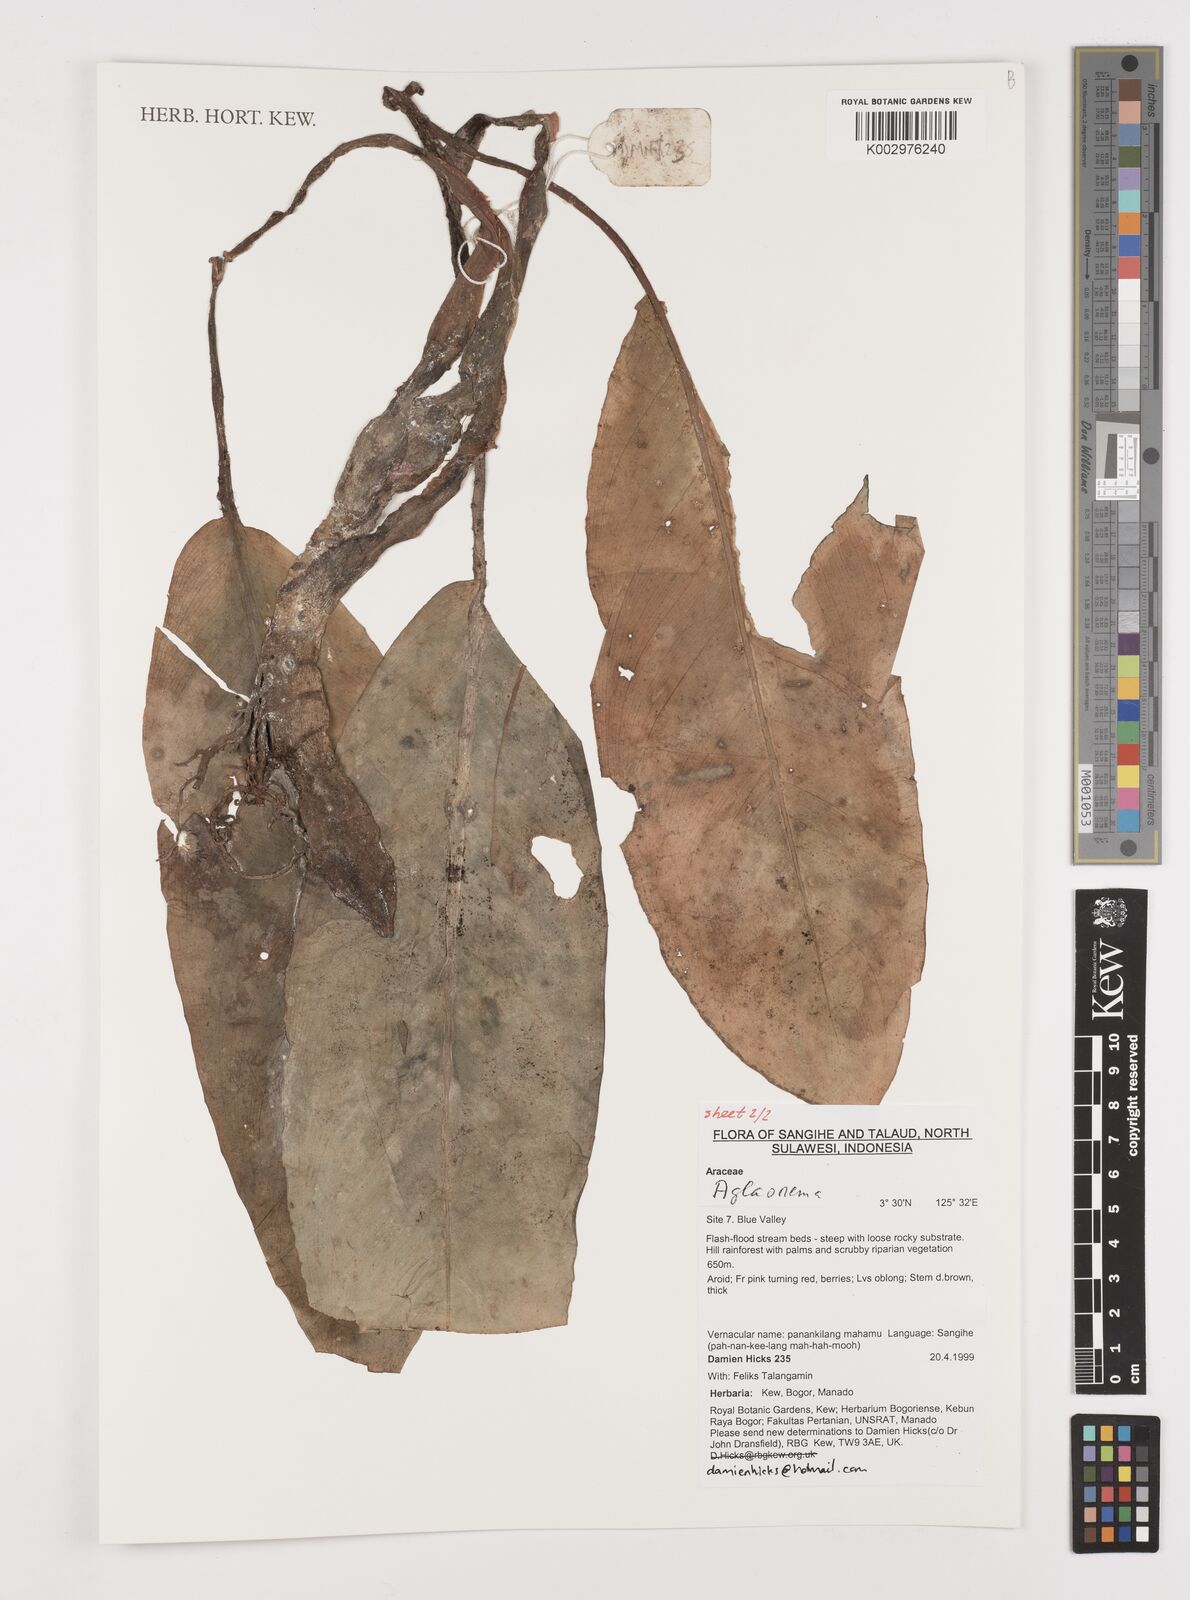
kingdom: Plantae
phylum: Tracheophyta
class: Liliopsida
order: Alismatales
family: Araceae
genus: Aglaonema
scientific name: Aglaonema
